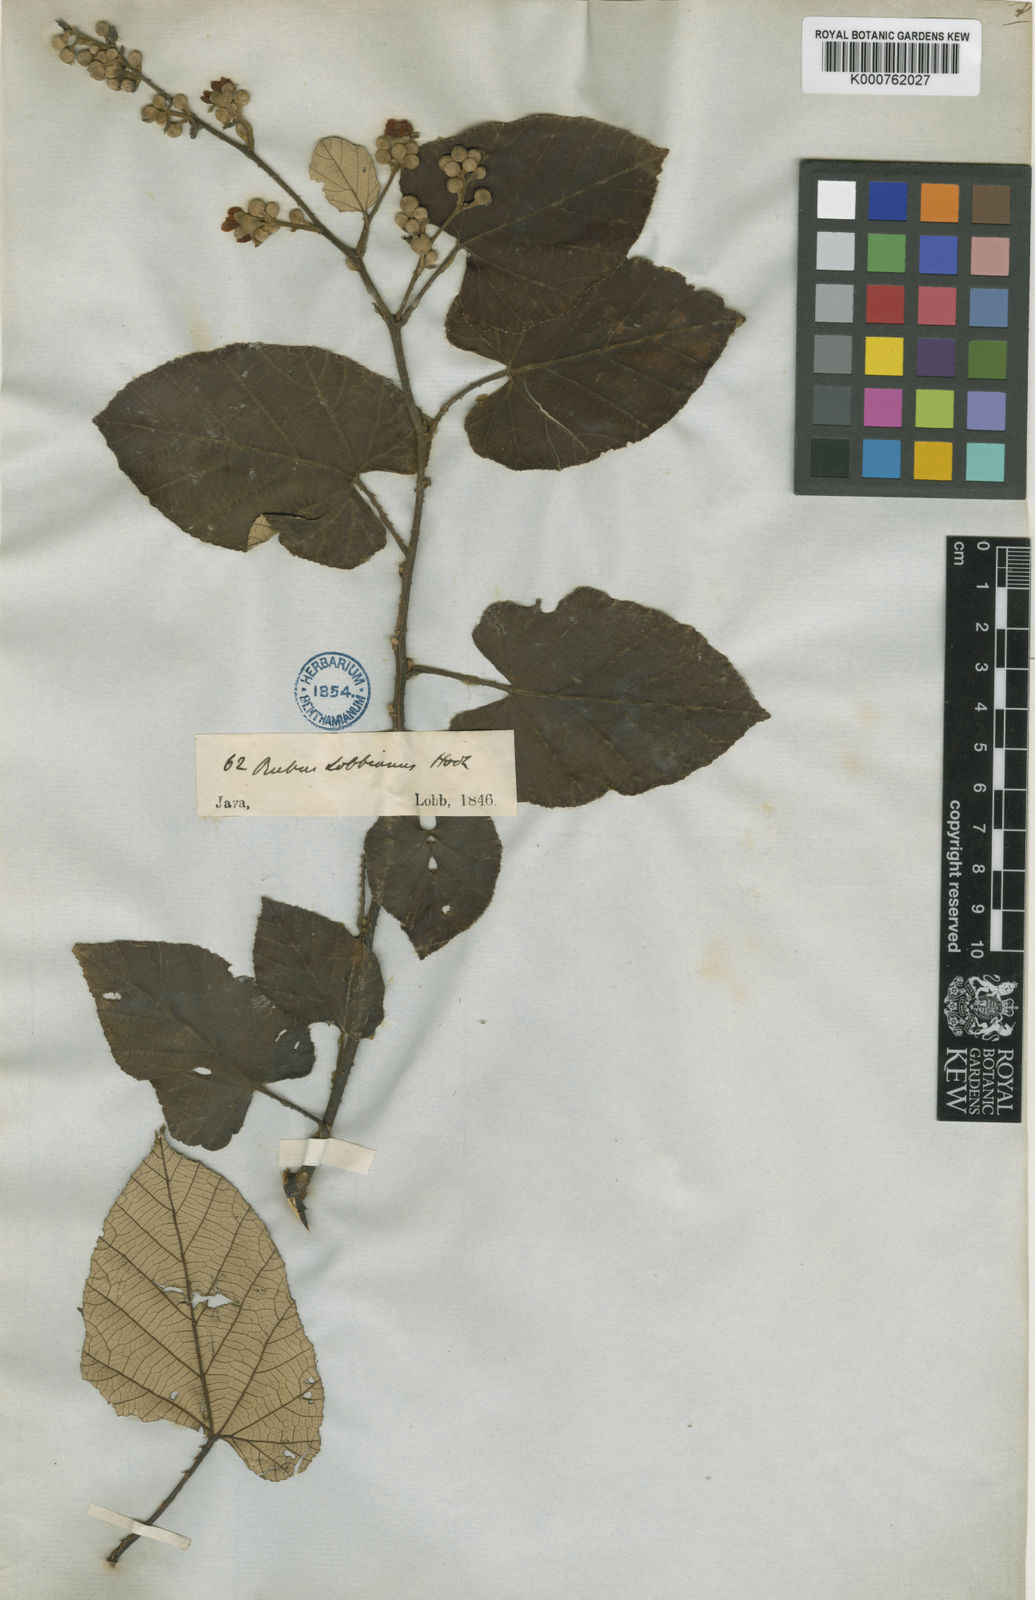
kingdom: Plantae
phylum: Tracheophyta
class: Magnoliopsida
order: Rosales
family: Rosaceae
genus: Rubus
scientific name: Rubus elongatus
